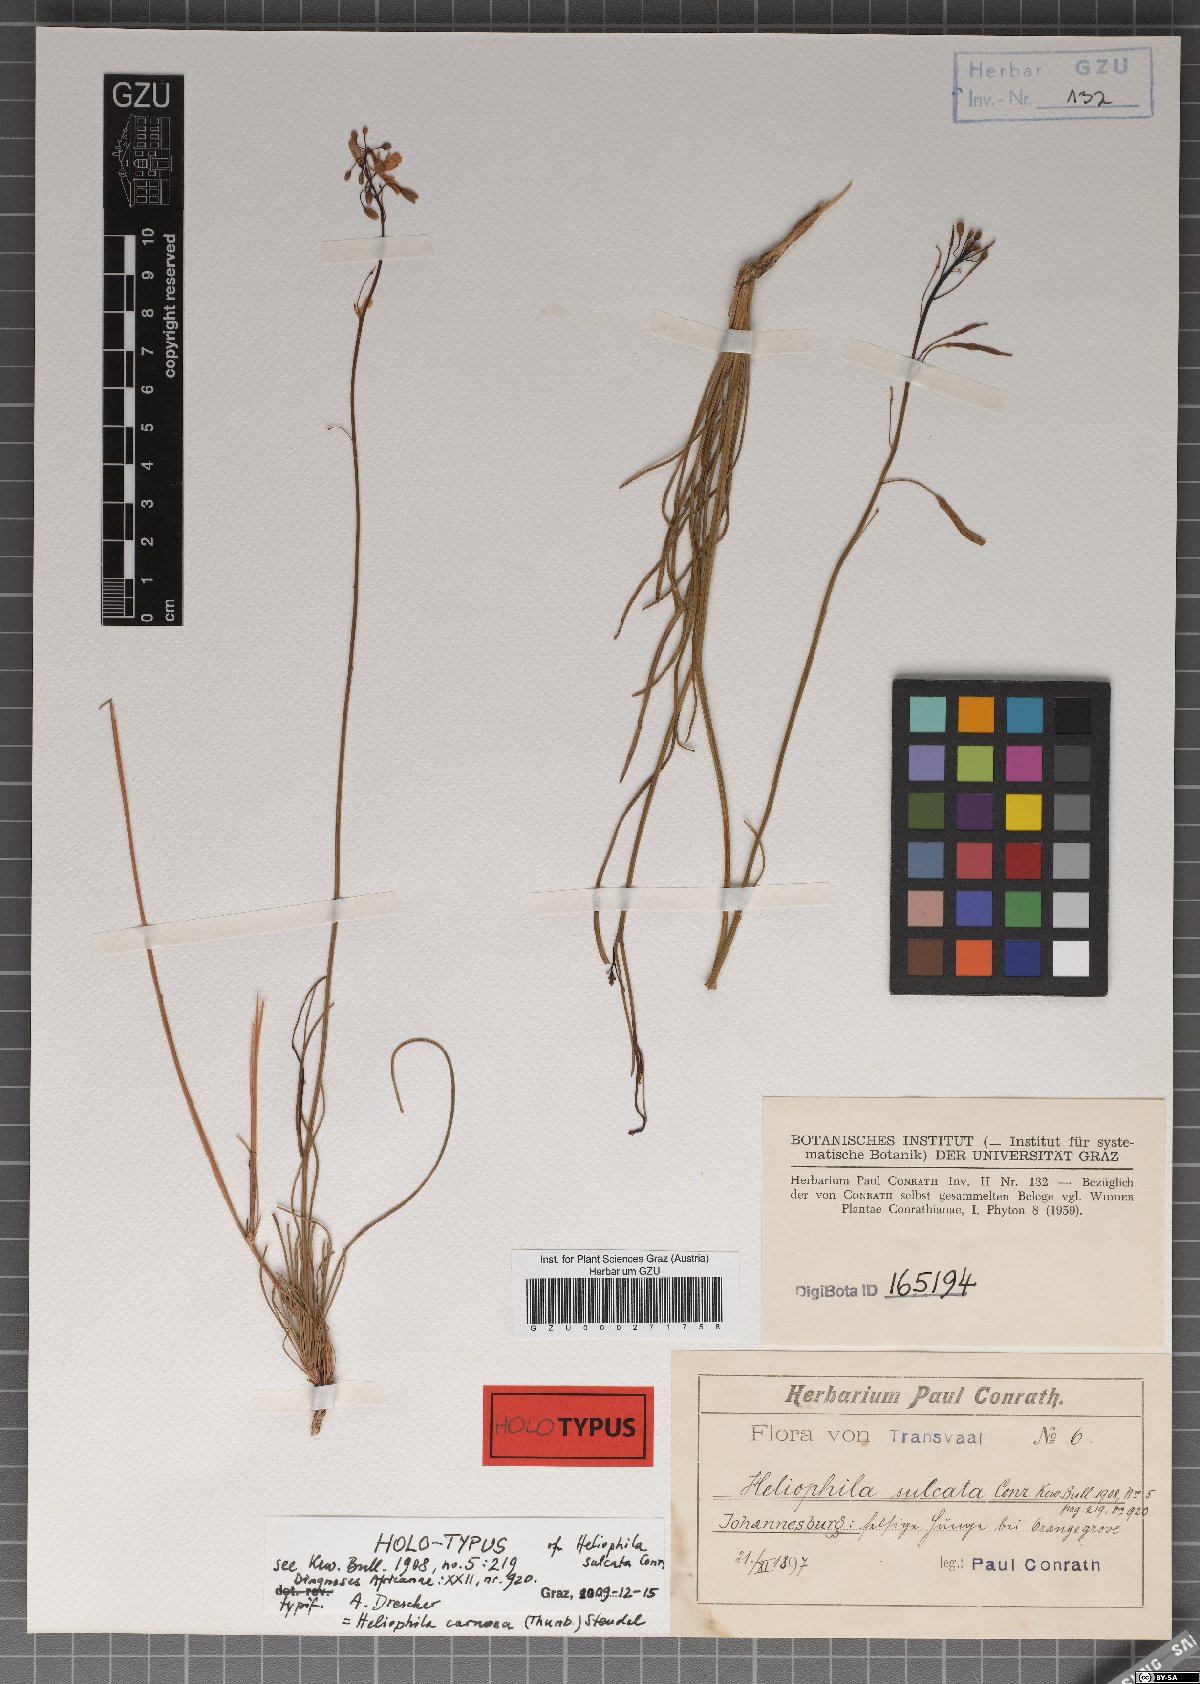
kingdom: Plantae
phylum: Tracheophyta
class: Magnoliopsida
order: Brassicales
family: Brassicaceae
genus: Heliophila
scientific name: Heliophila carnosa
